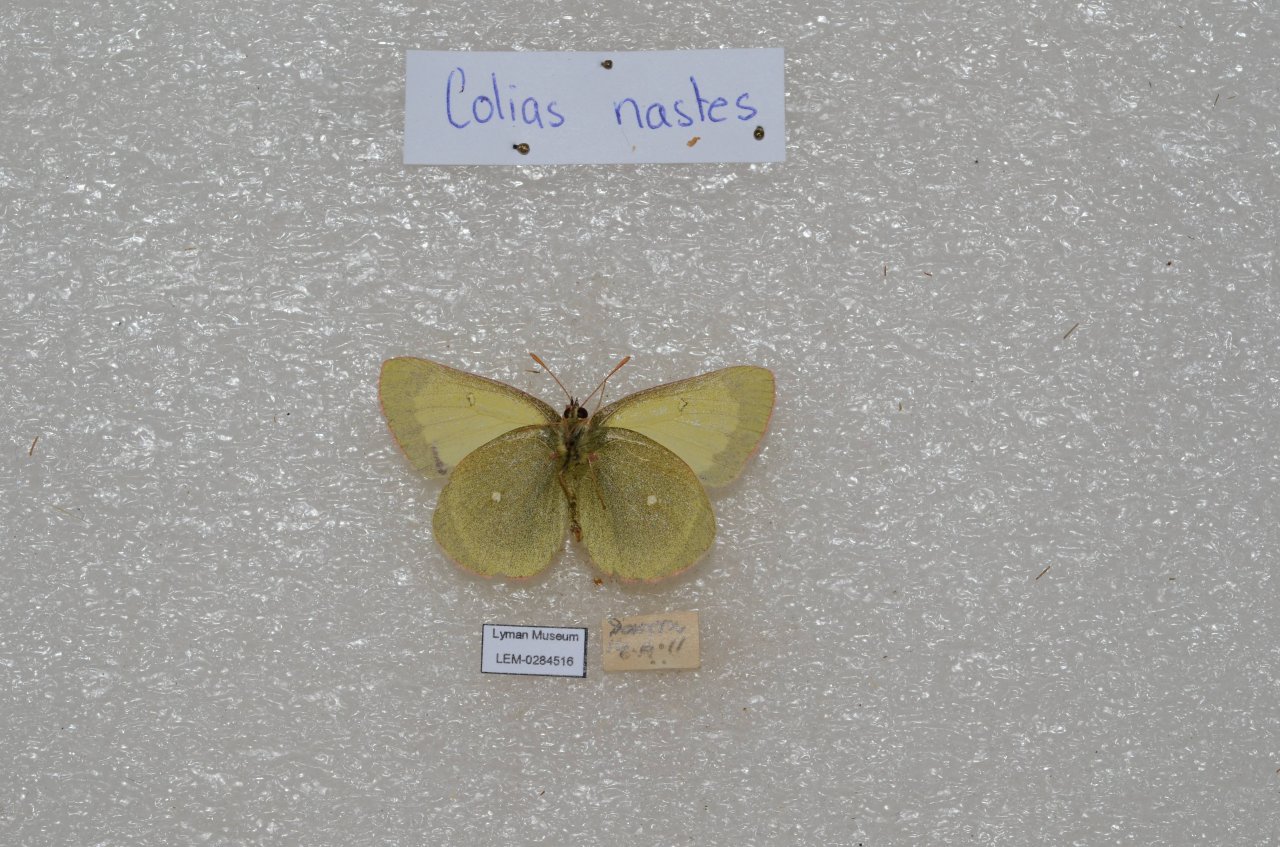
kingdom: Animalia
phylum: Arthropoda
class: Insecta
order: Lepidoptera
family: Pieridae
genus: Colias
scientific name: Colias palaeno
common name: Chippewa Sulphur
